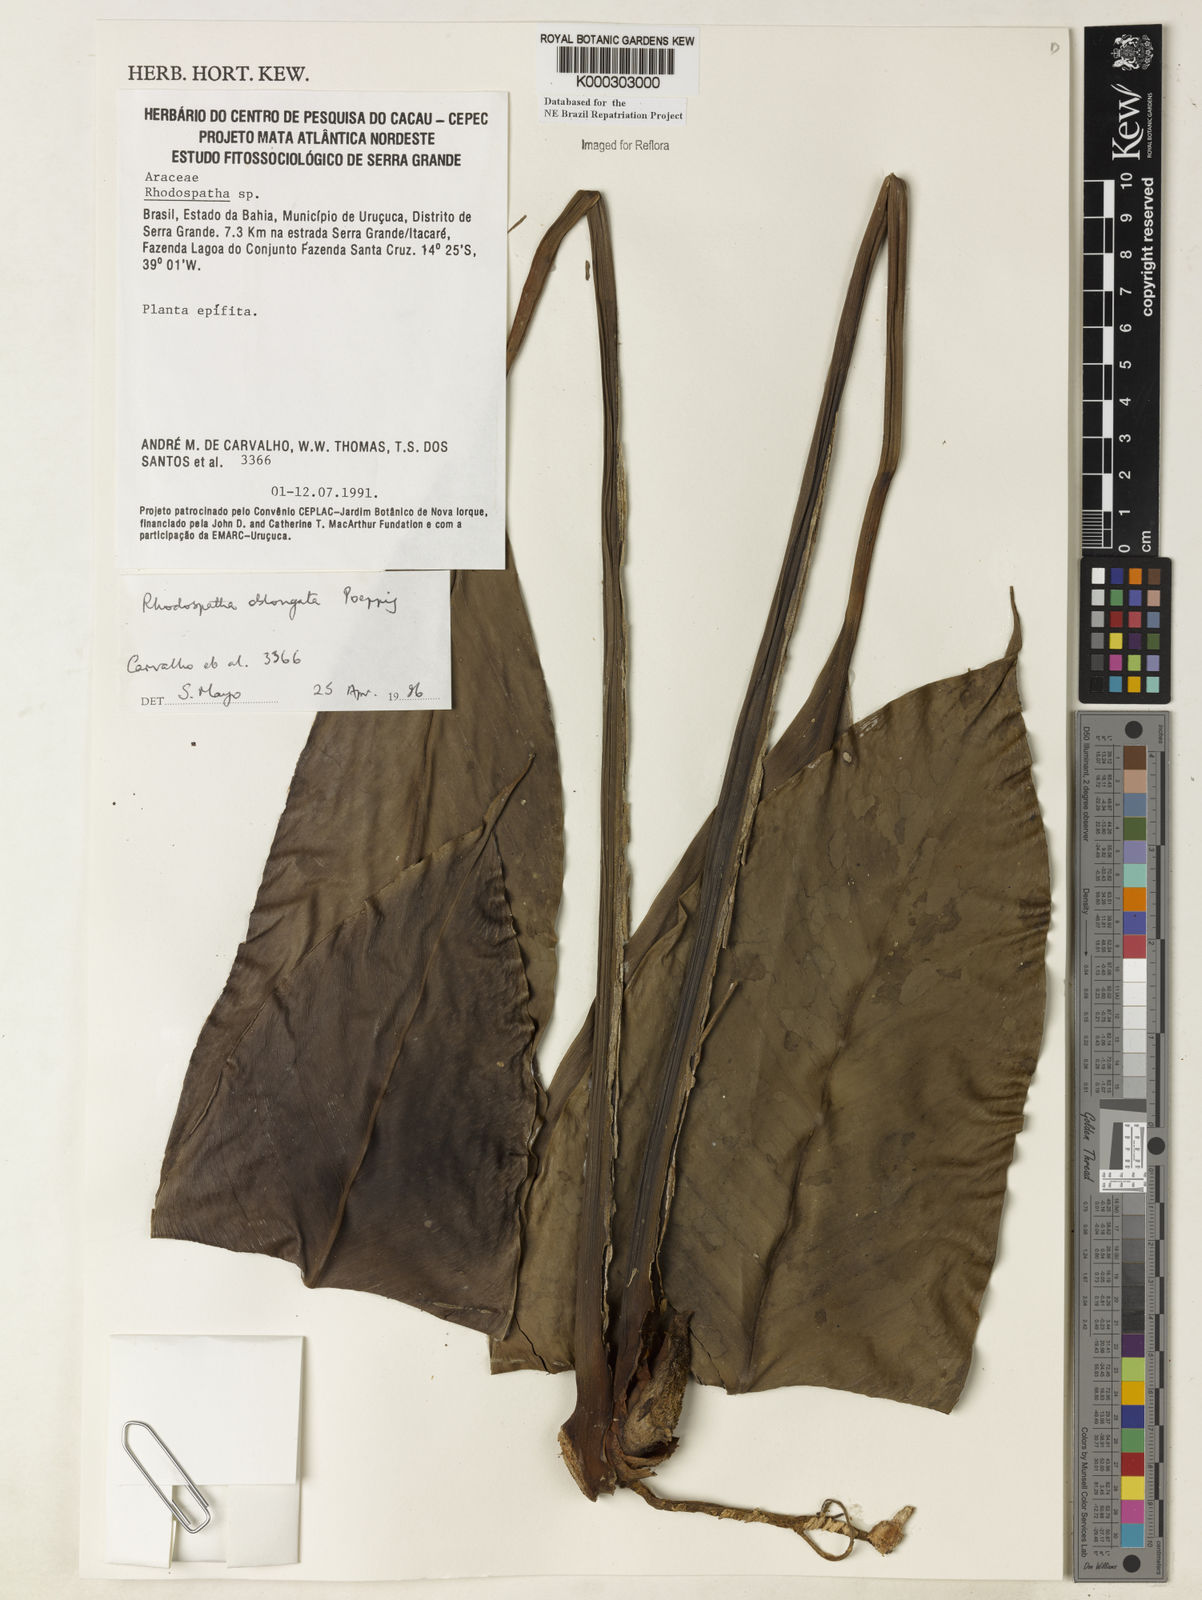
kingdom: Plantae
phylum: Tracheophyta
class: Liliopsida
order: Alismatales
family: Araceae
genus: Rhodospatha
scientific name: Rhodospatha oblongata
